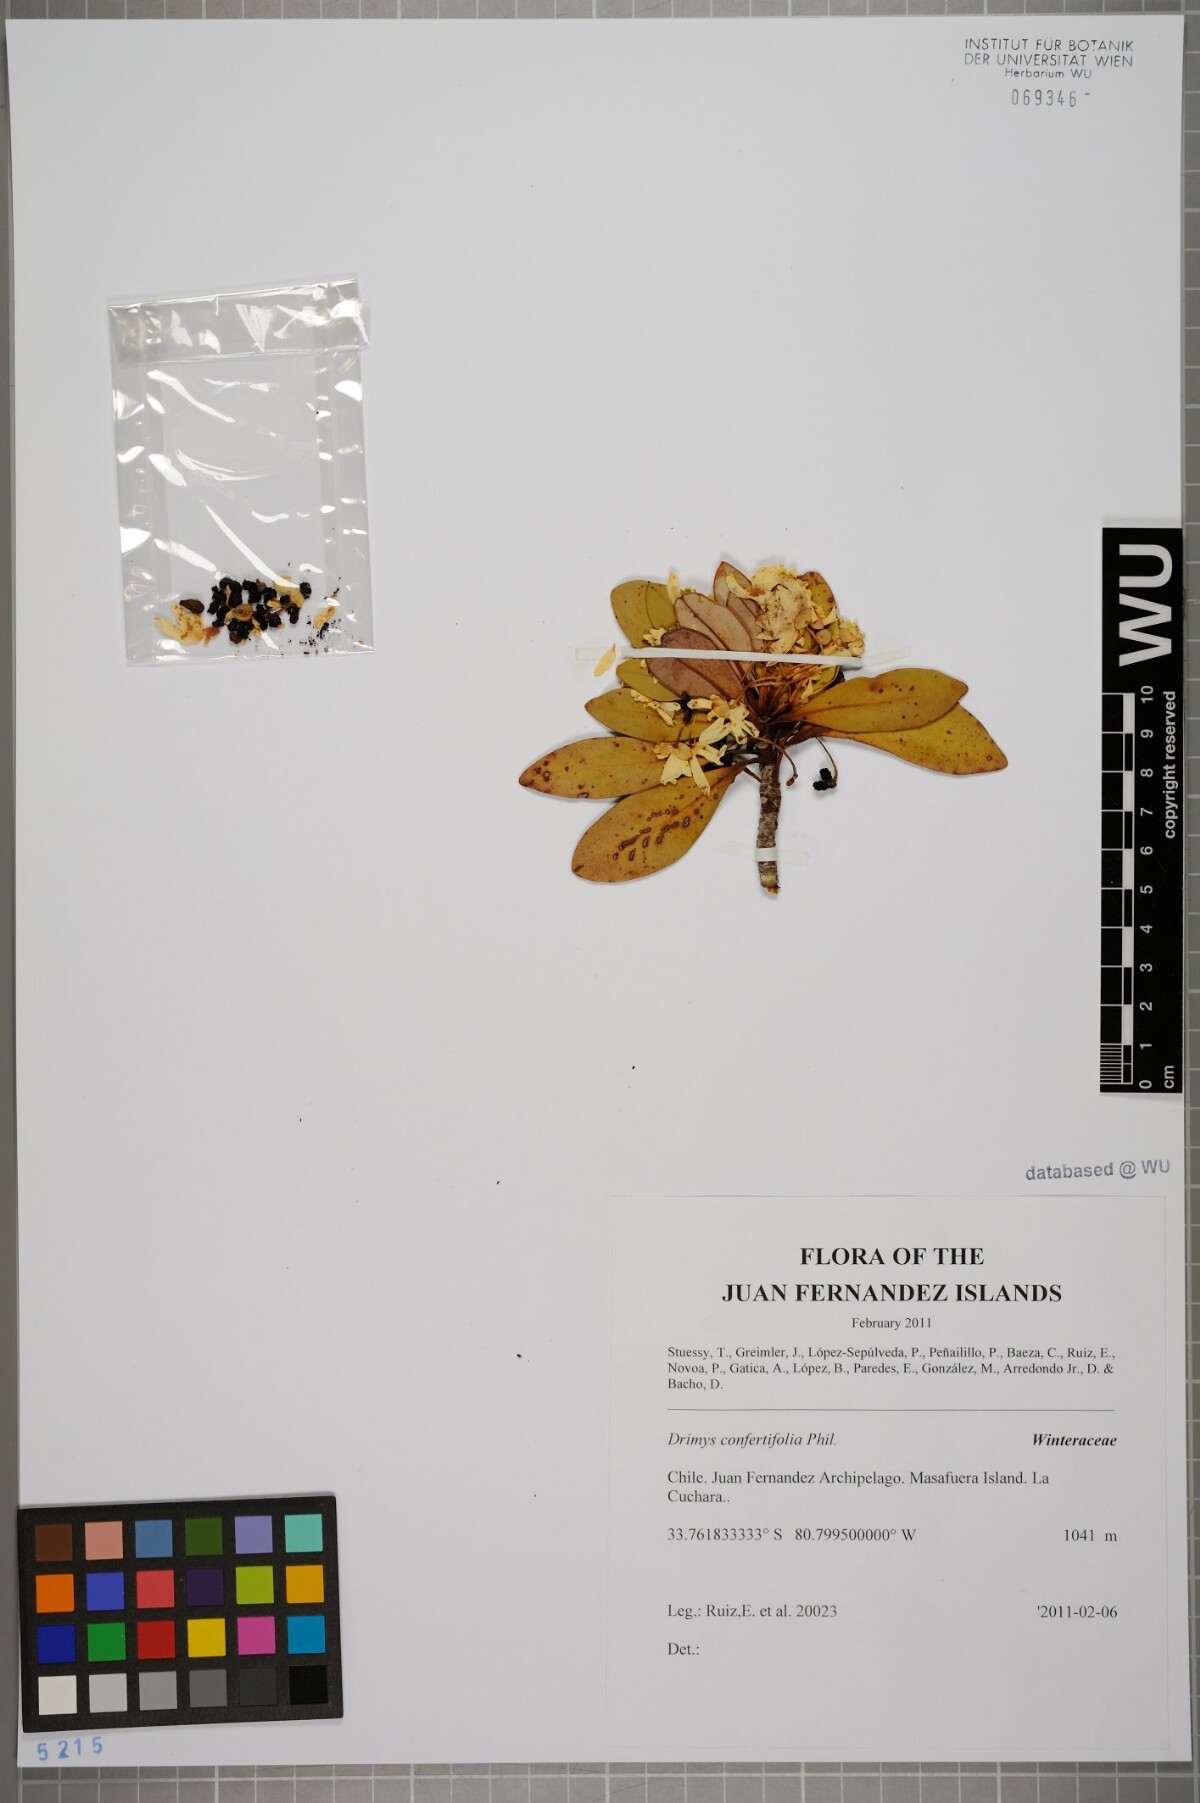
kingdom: Plantae
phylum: Tracheophyta
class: Magnoliopsida
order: Canellales
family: Winteraceae
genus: Drimys
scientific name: Drimys confertiflora
